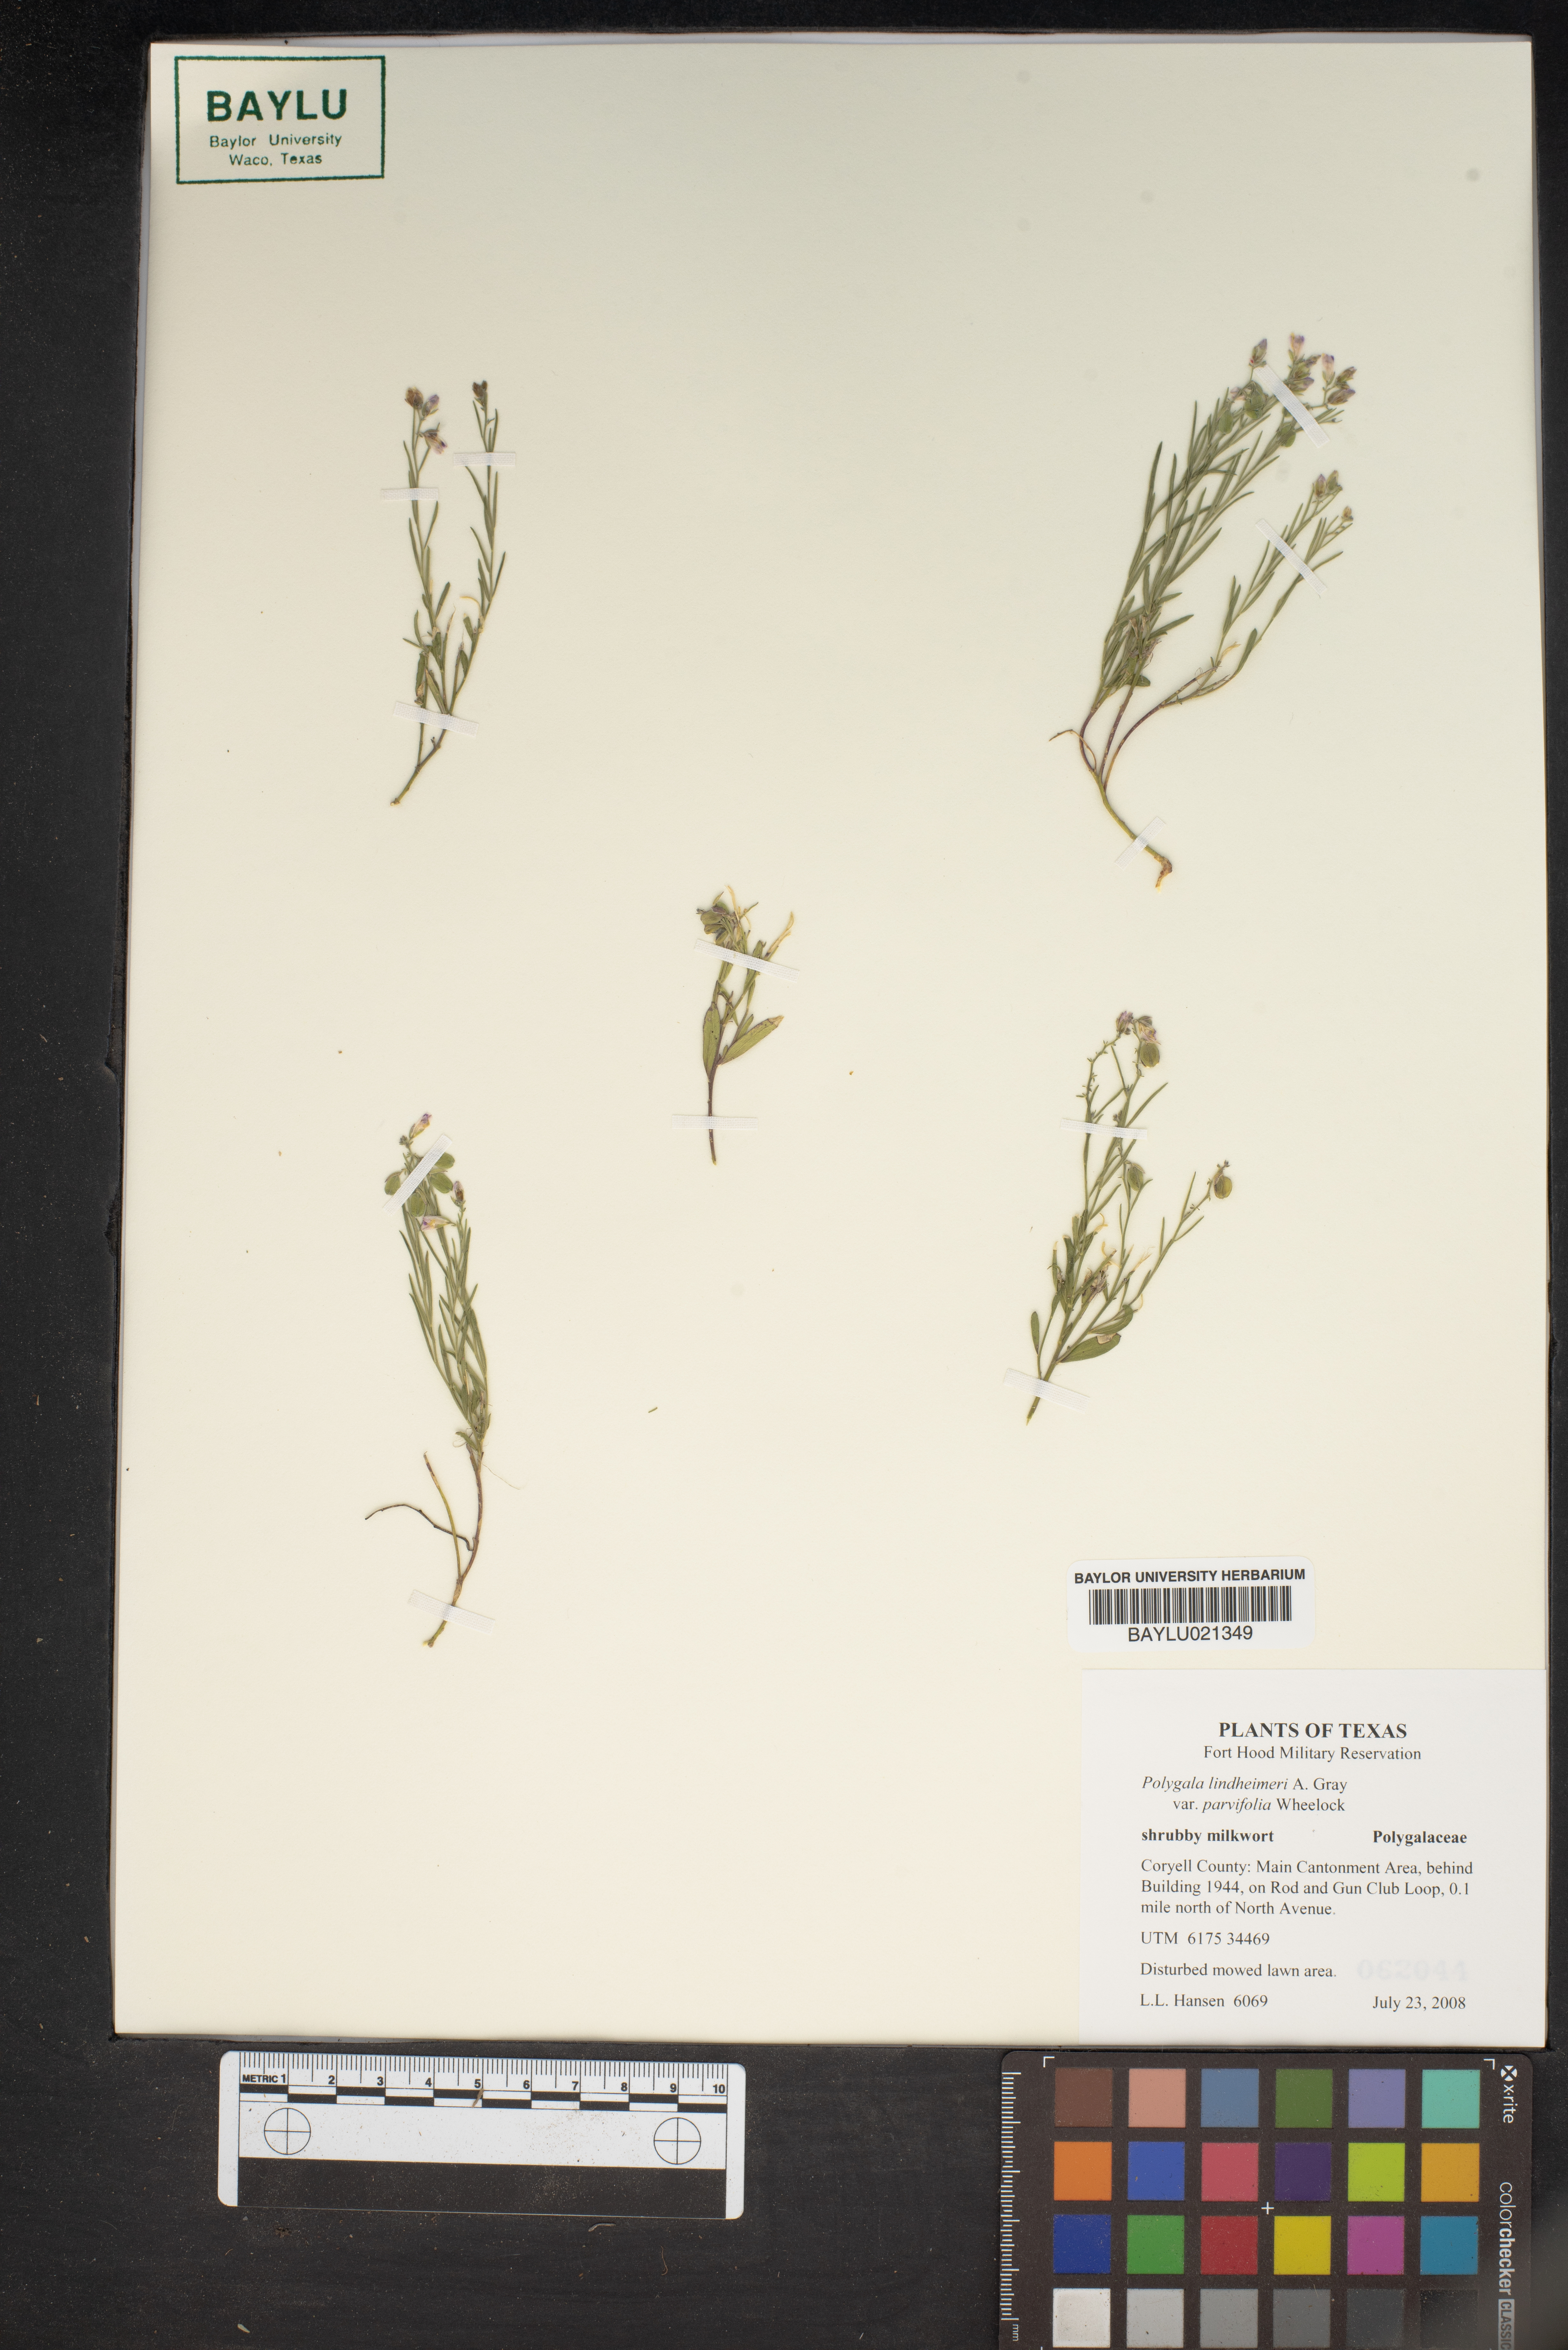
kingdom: Plantae
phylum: Tracheophyta
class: Magnoliopsida
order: Fabales
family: Polygalaceae
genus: Rhinotropis
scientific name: Rhinotropis lindheimeri
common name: Shrubby milkwort
